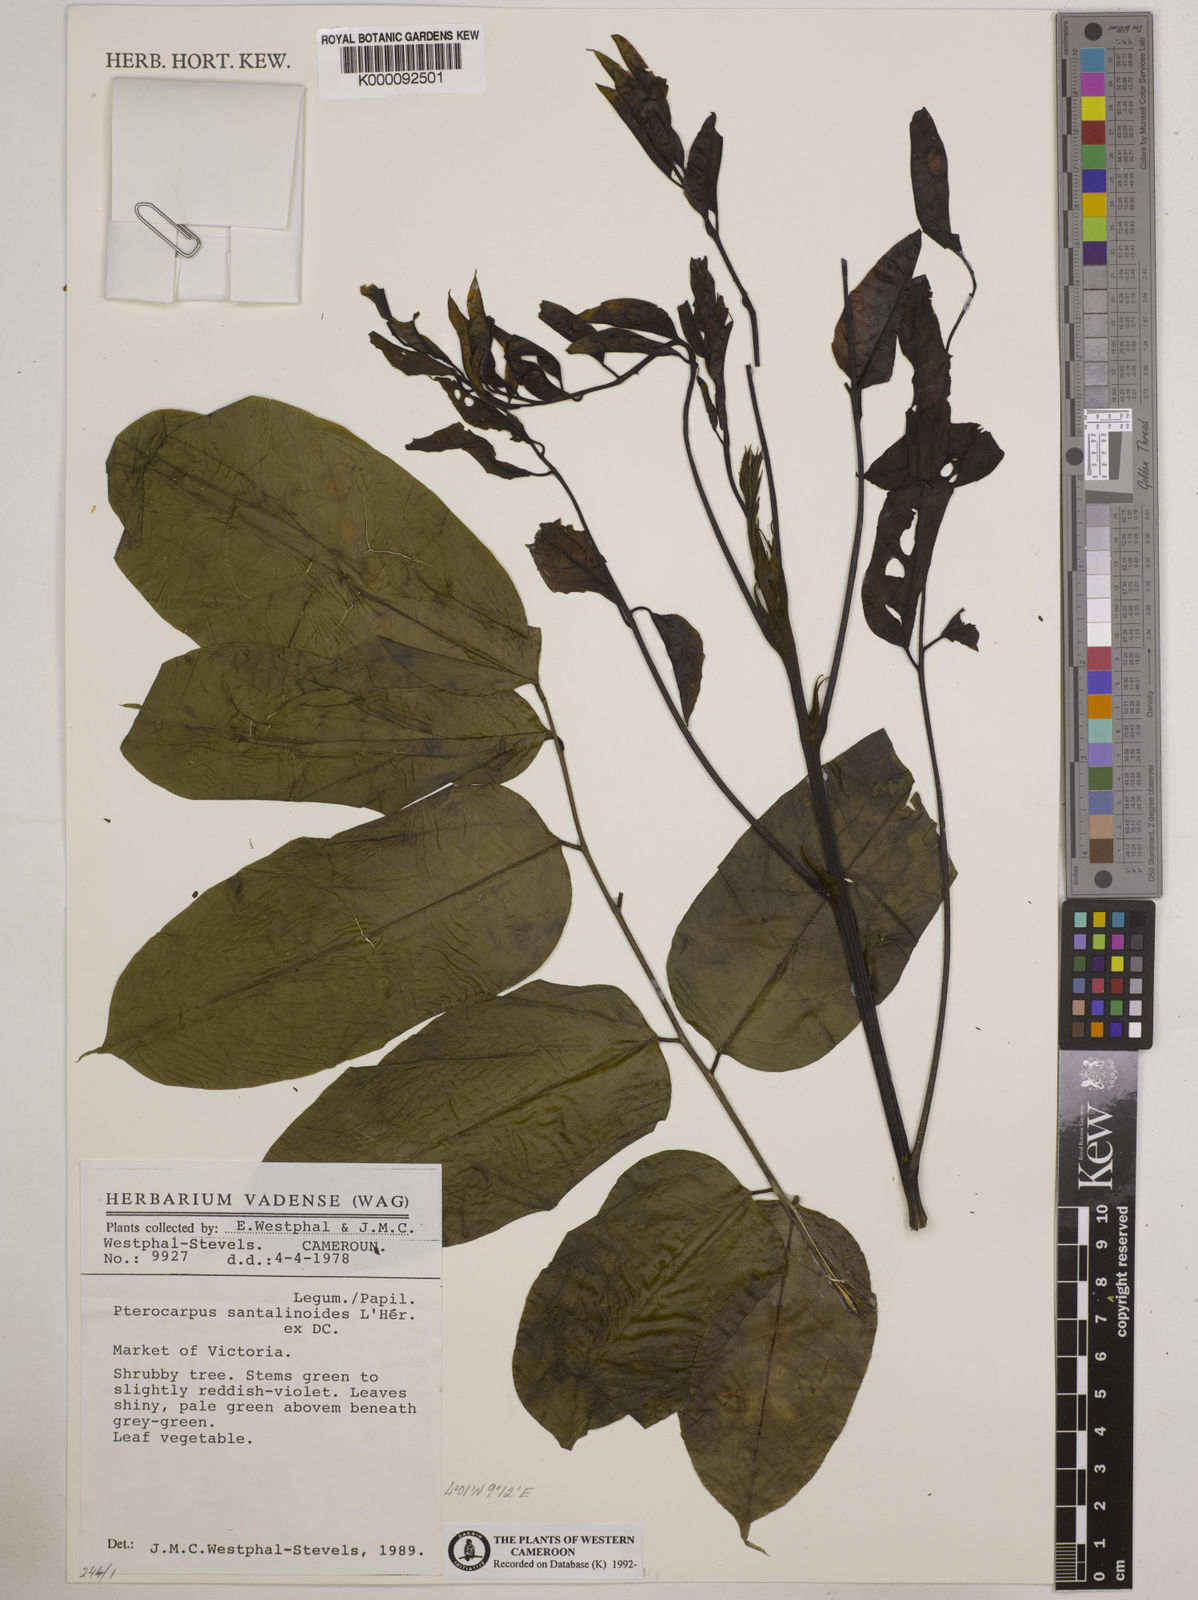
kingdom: Plantae
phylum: Tracheophyta
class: Magnoliopsida
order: Fabales
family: Fabaceae
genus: Pterocarpus
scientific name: Pterocarpus
